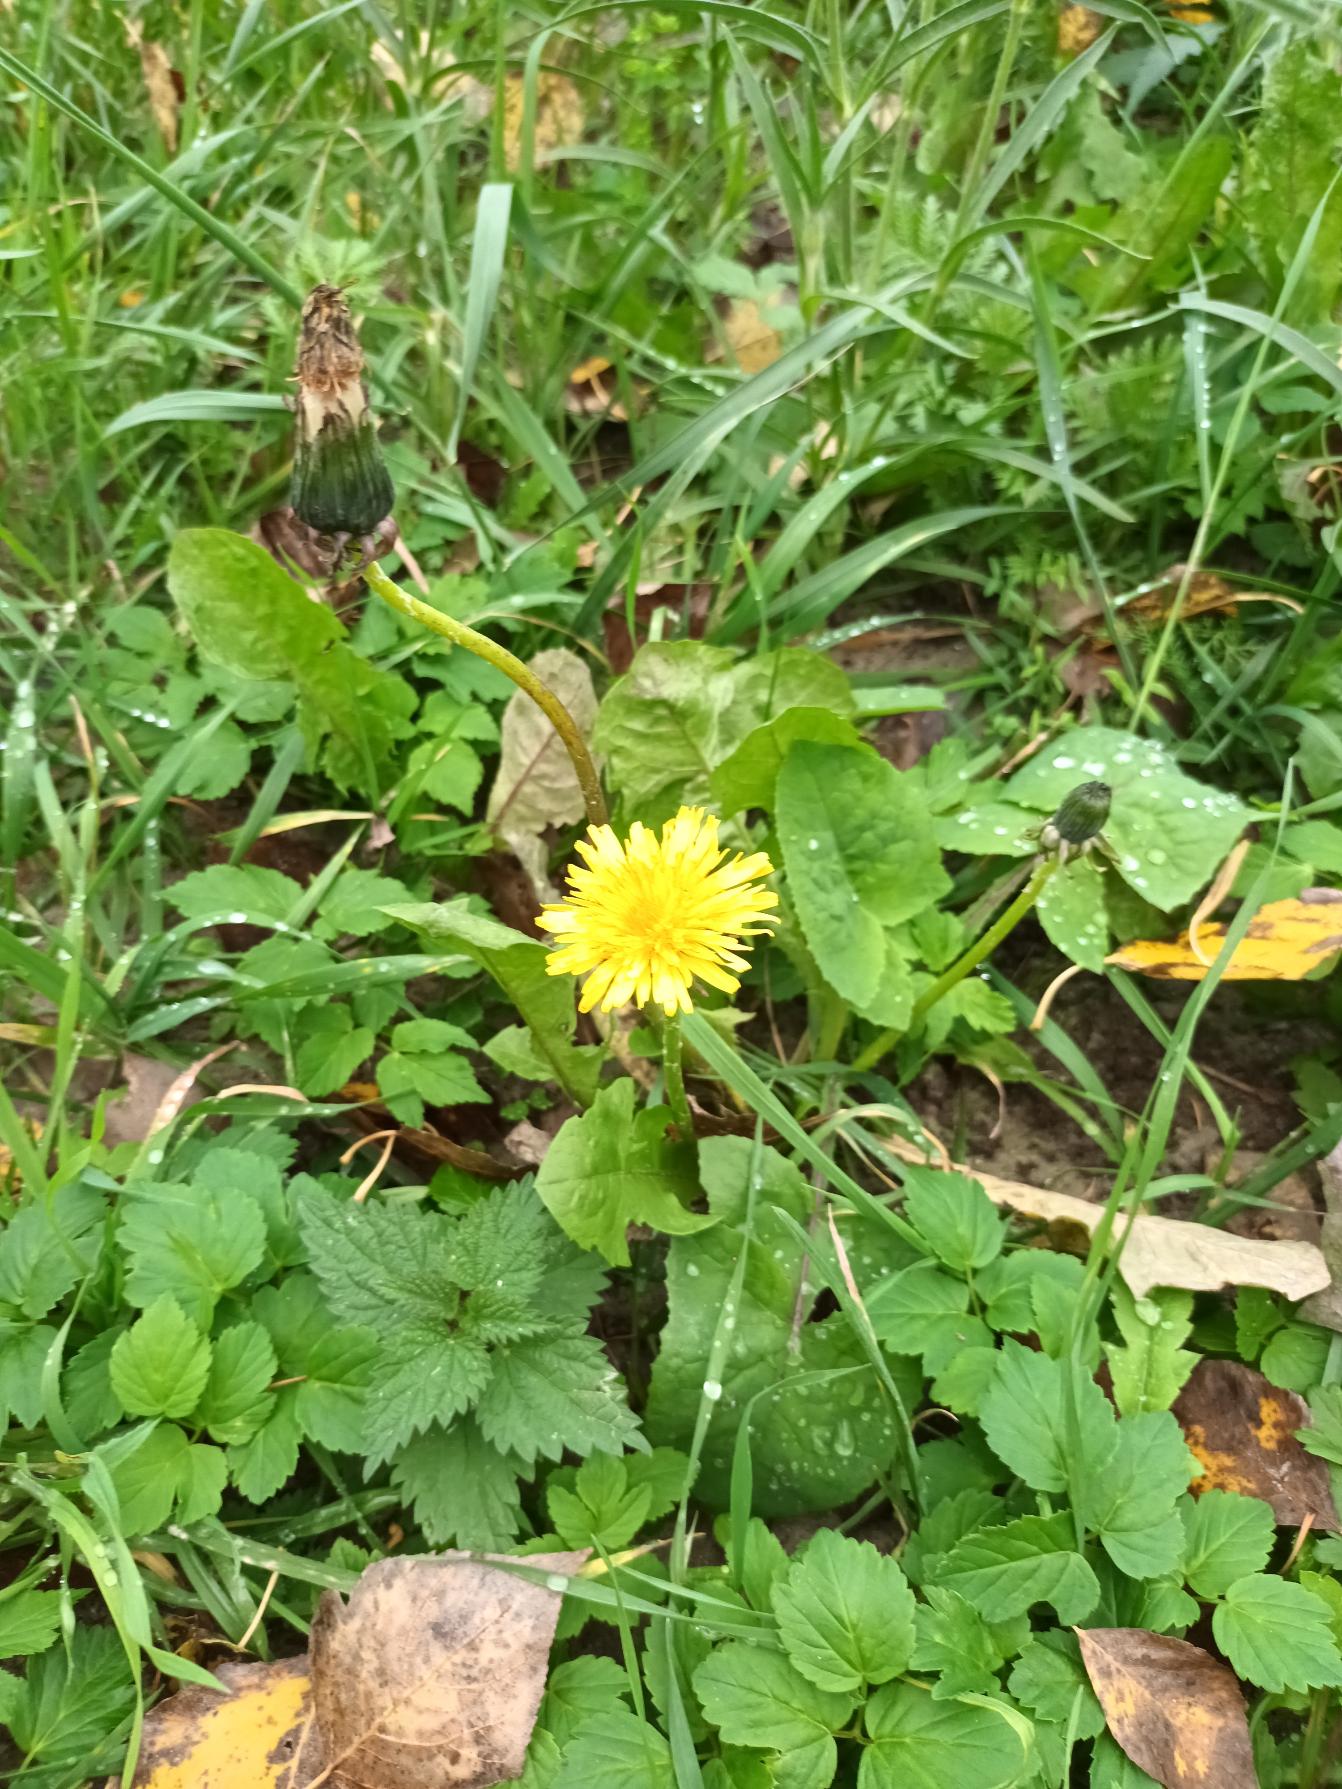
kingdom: Plantae
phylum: Tracheophyta
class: Magnoliopsida
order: Asterales
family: Asteraceae
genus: Taraxacum
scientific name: Taraxacum
